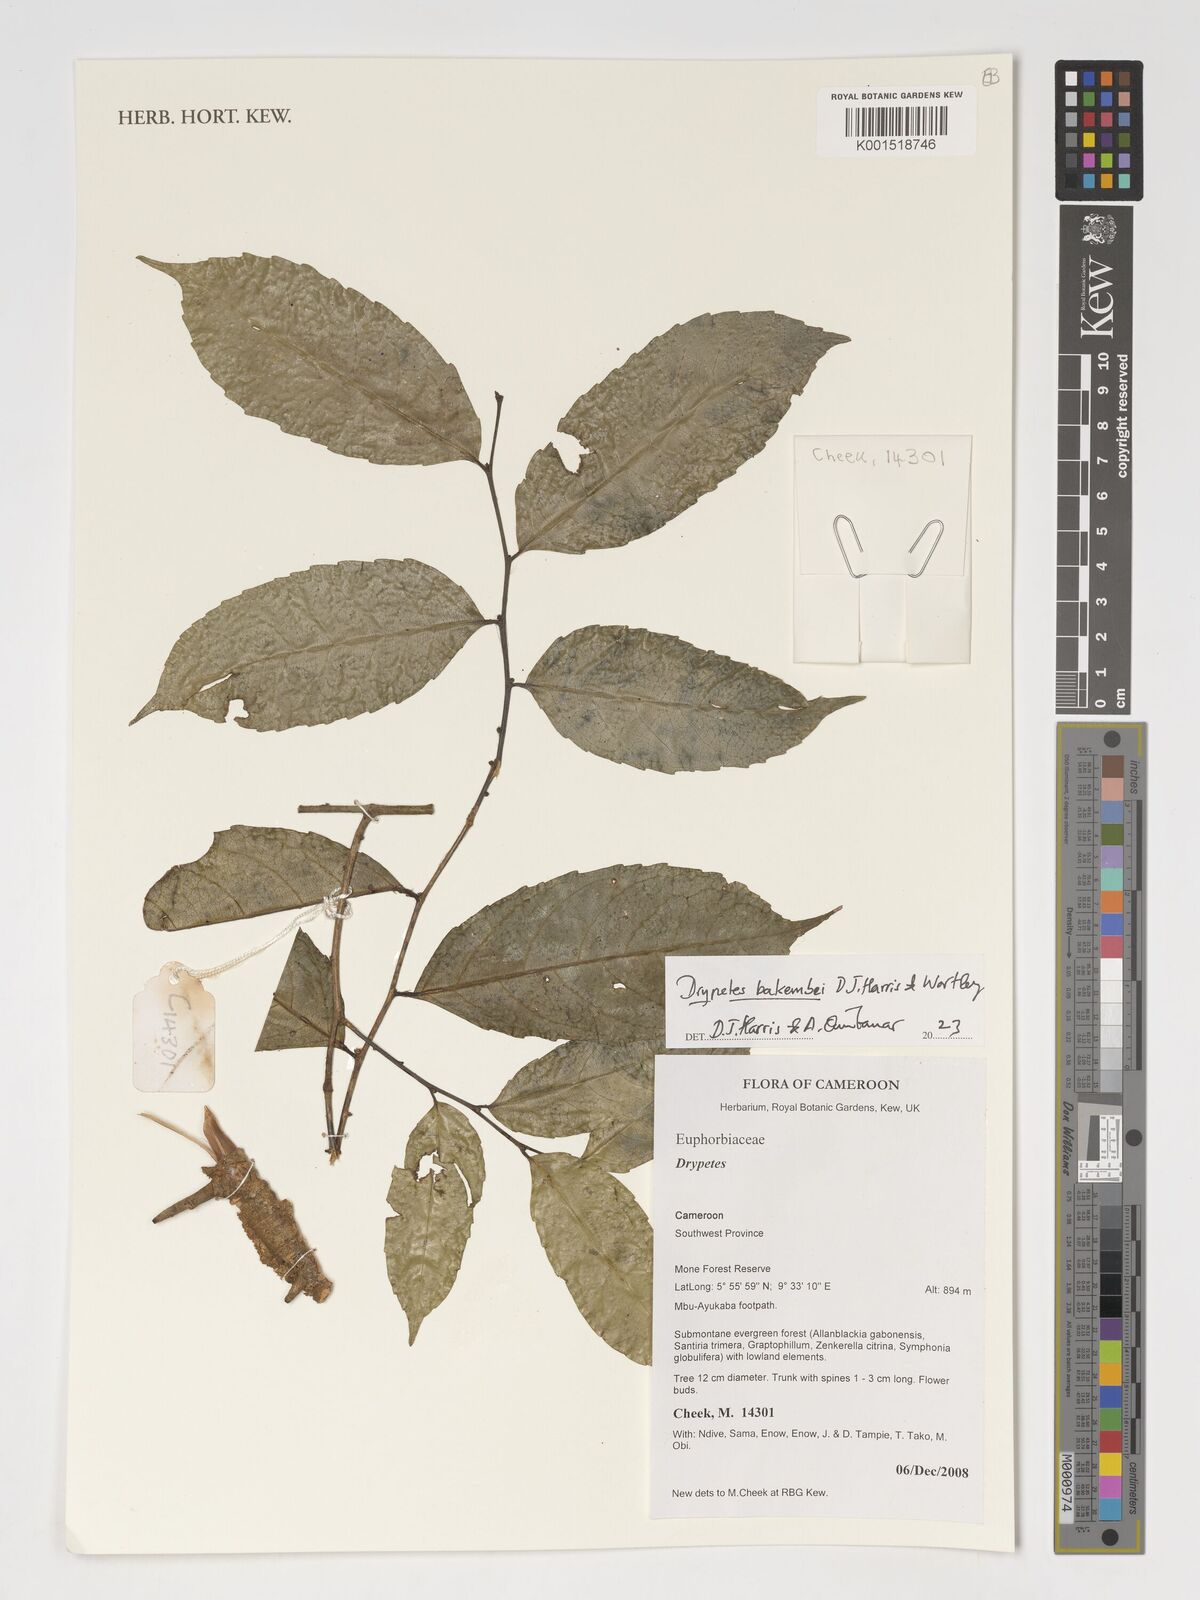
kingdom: Plantae
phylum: Tracheophyta
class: Magnoliopsida
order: Malpighiales
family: Putranjivaceae
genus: Drypetes
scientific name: Drypetes bakembei
